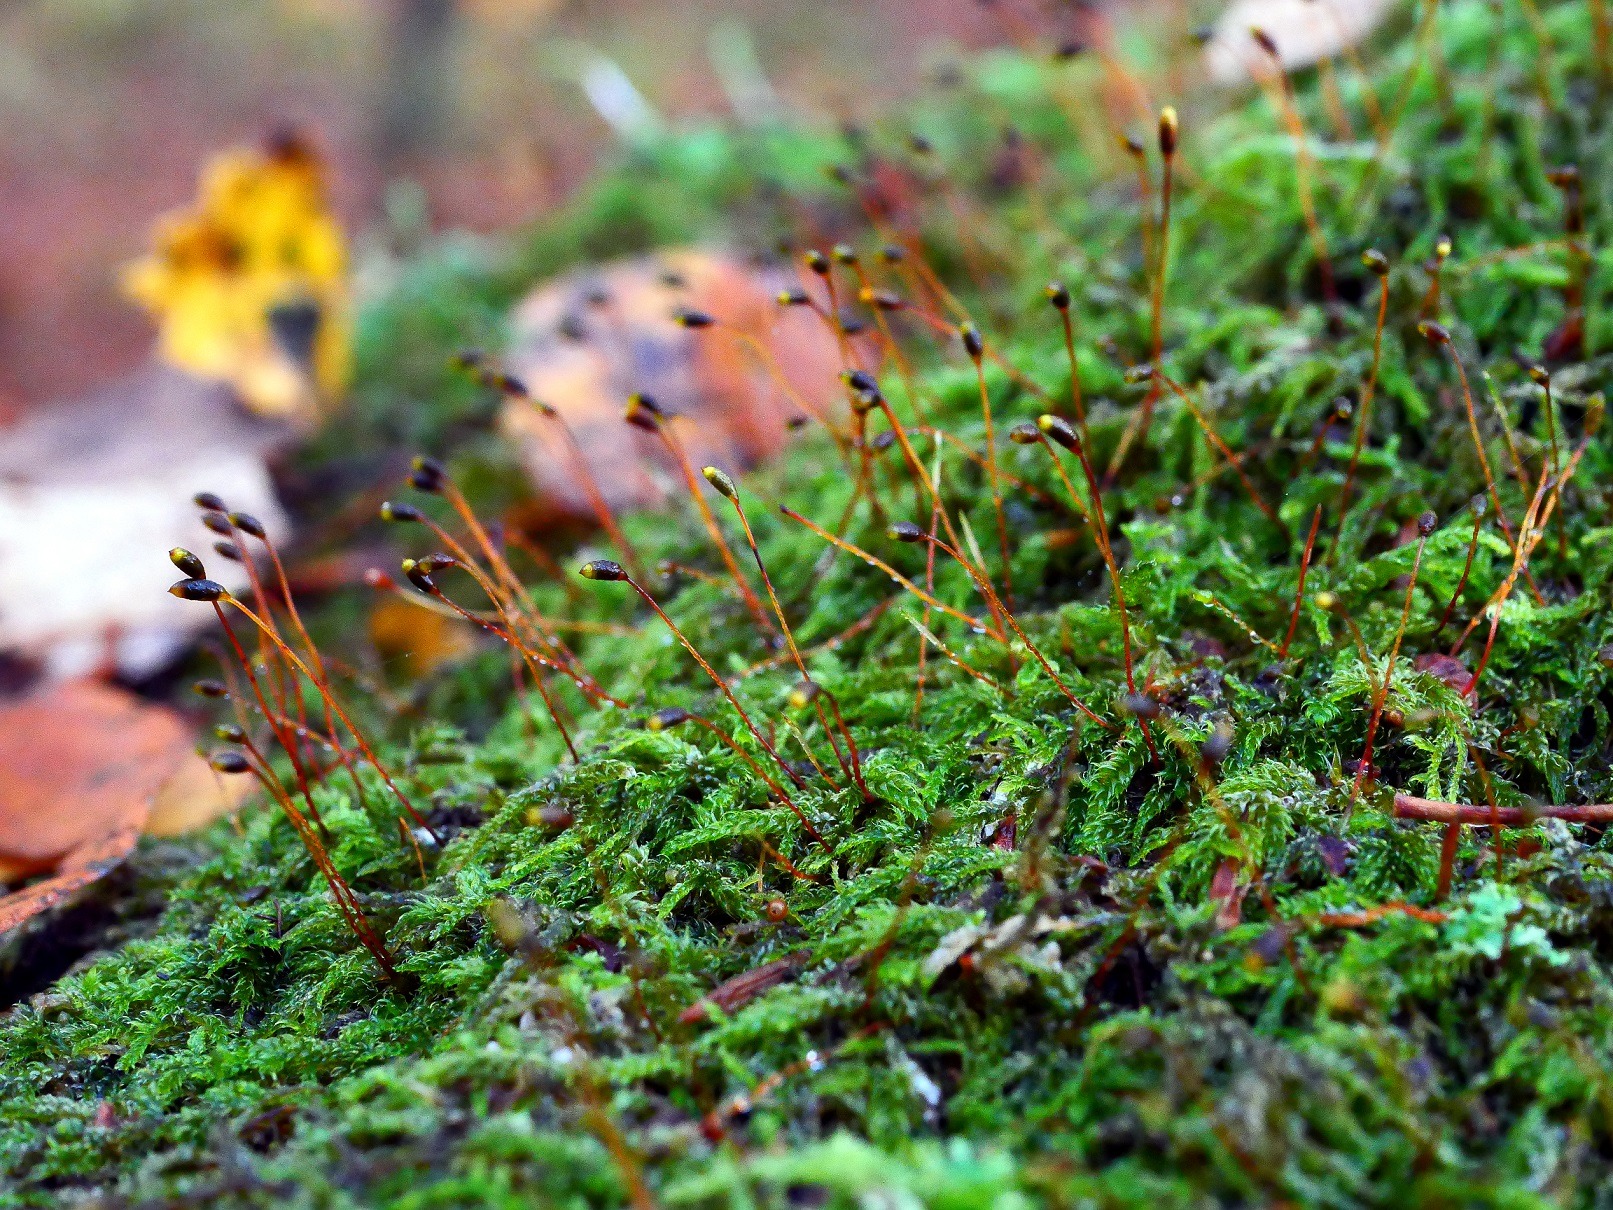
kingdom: Plantae
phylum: Bryophyta
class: Bryopsida
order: Hypnales
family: Hypnaceae
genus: Hypnum
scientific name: Hypnum andoi
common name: Vortet cypresmos
